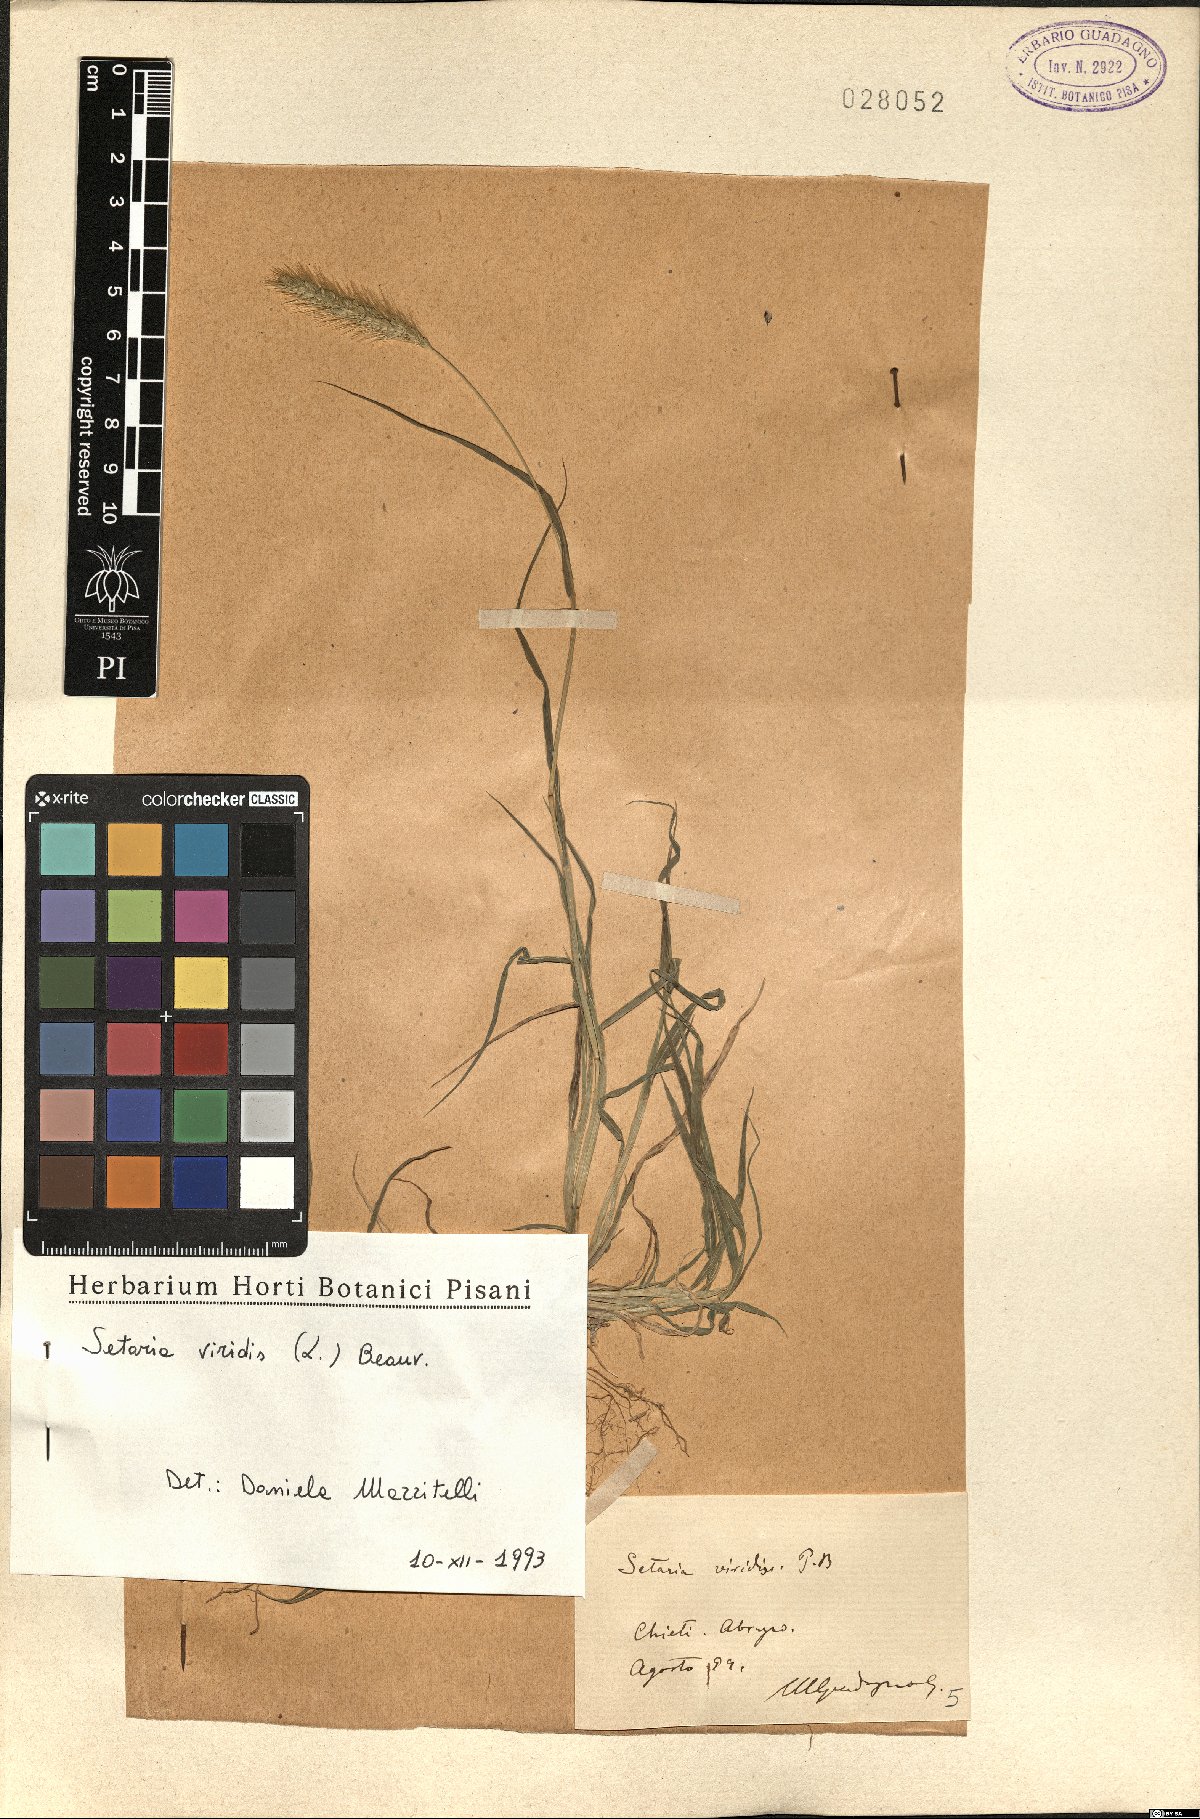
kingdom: Plantae
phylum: Tracheophyta
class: Liliopsida
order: Poales
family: Poaceae
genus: Setaria
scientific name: Setaria viridis
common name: Green bristlegrass
